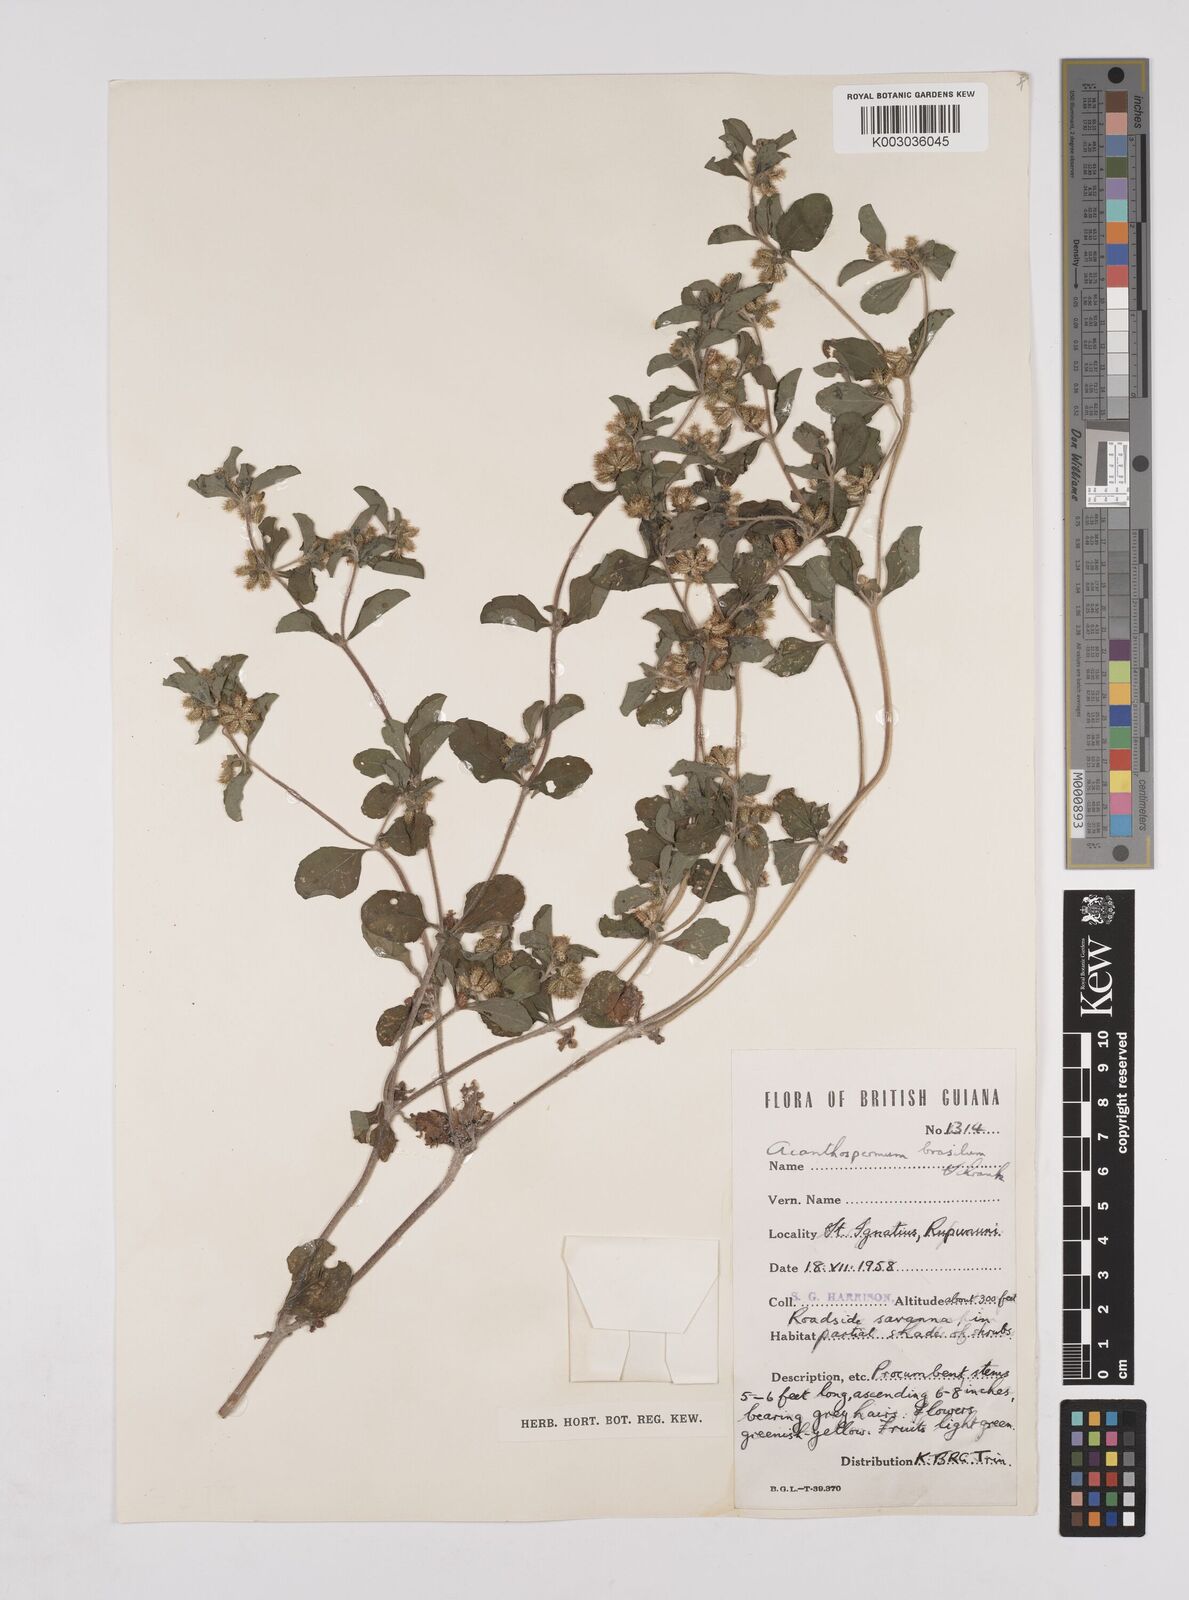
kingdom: Plantae
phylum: Tracheophyta
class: Magnoliopsida
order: Asterales
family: Asteraceae
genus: Acanthospermum
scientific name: Acanthospermum australe
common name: Paraguayan starbur
